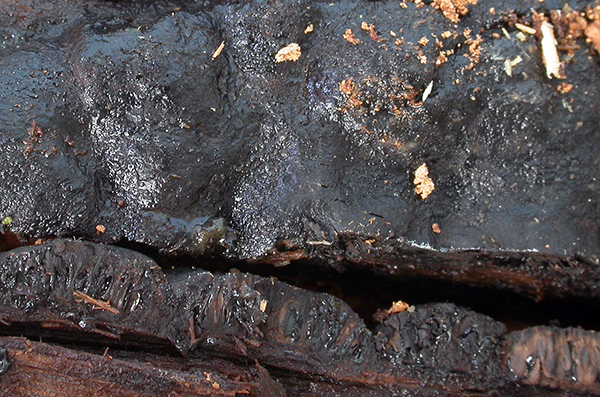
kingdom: Fungi
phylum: Ascomycota
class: Sordariomycetes
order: Boliniales
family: Boliniaceae
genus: Camarops
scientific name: Camarops tubulina
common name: knudret kulsnegl
